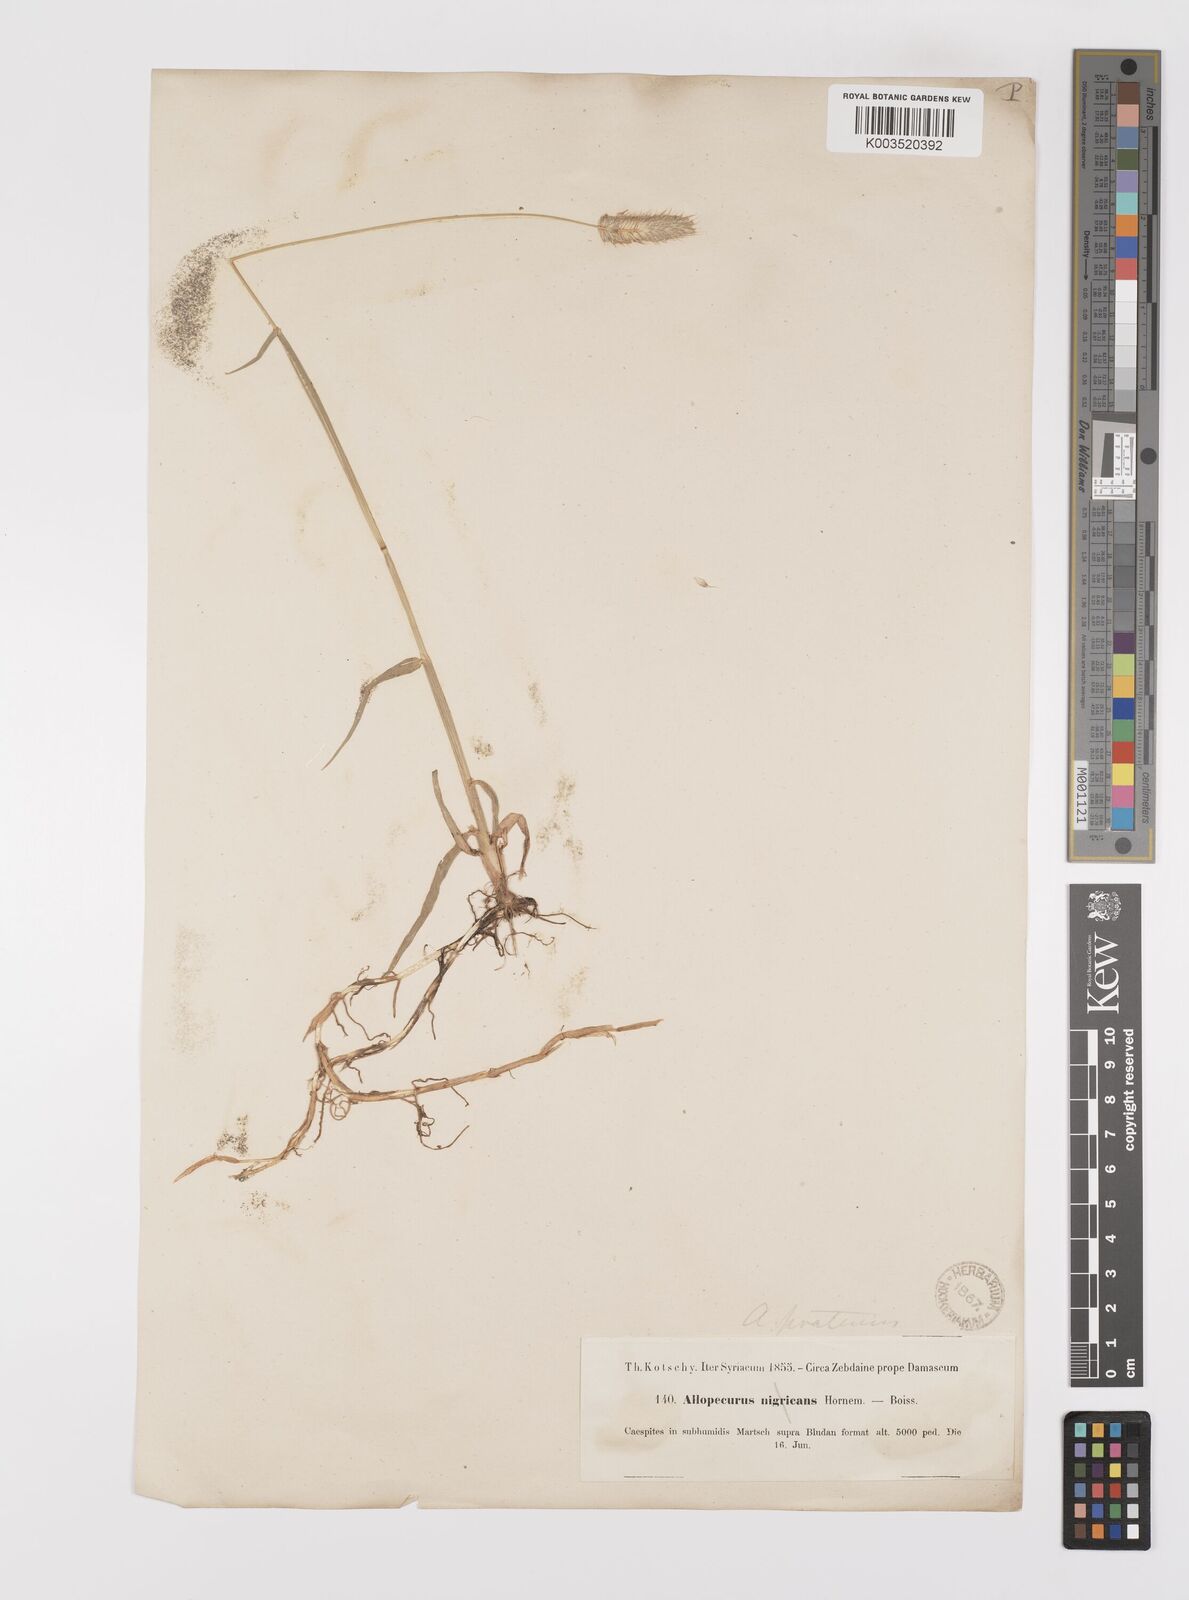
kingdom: Plantae
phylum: Tracheophyta
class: Liliopsida
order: Poales
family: Poaceae
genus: Alopecurus
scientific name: Alopecurus arundinaceus
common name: Creeping meadow foxtail
